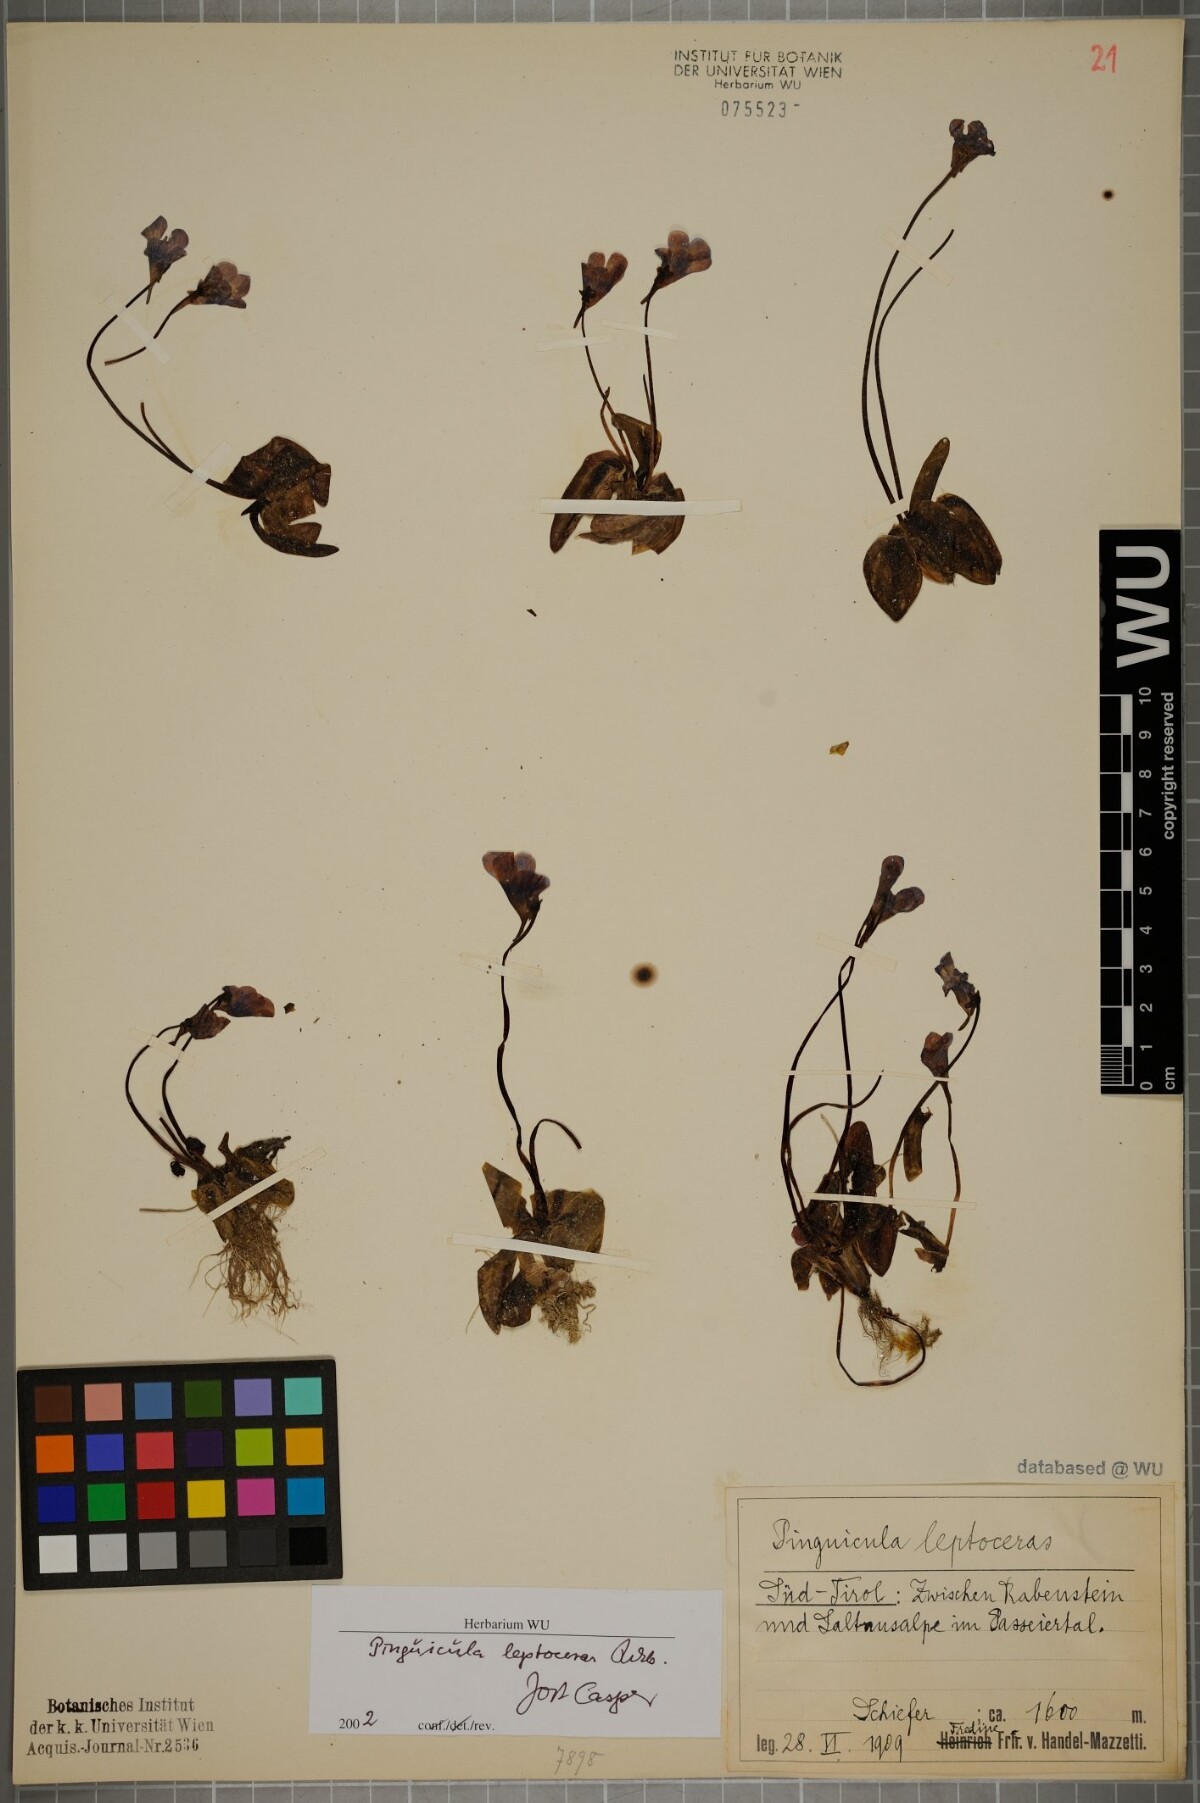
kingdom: Plantae
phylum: Tracheophyta
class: Magnoliopsida
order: Lamiales
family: Lentibulariaceae
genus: Pinguicula
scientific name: Pinguicula leptoceras
